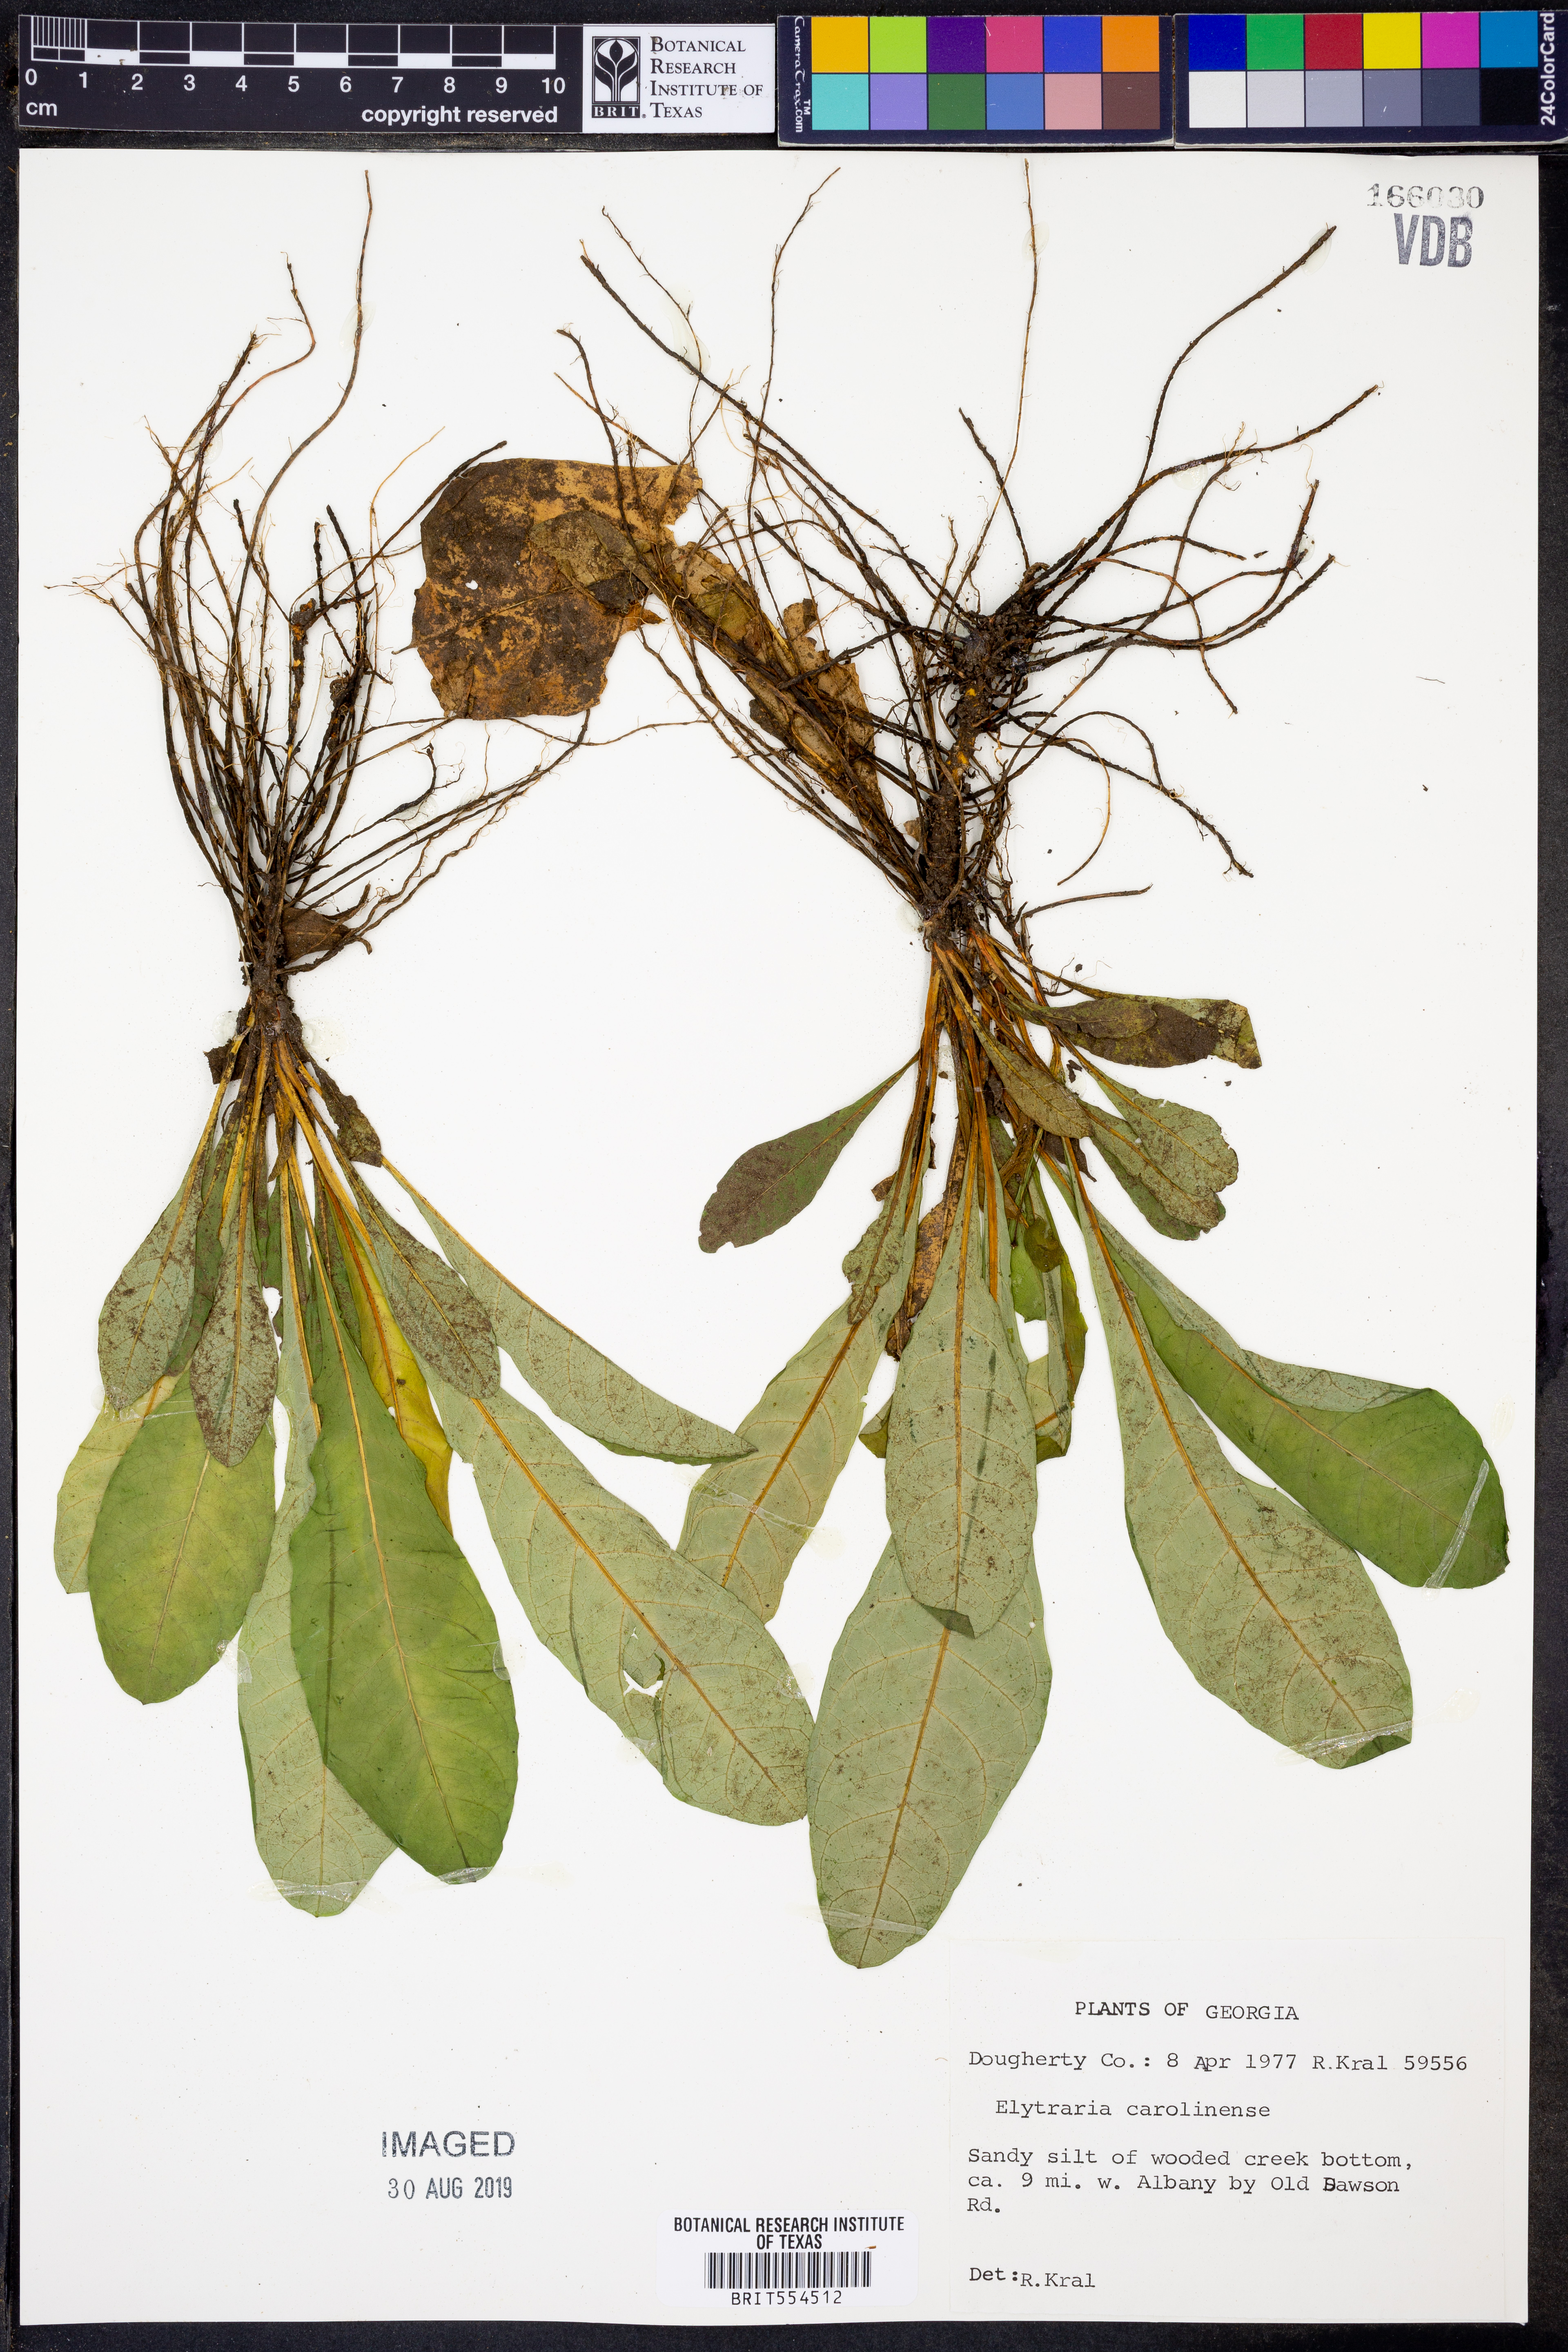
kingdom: Plantae
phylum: Tracheophyta
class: Magnoliopsida
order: Lamiales
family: Acanthaceae
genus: Elytraria
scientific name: Elytraria caroliniensis
